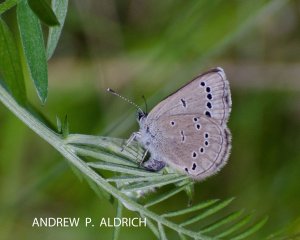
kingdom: Animalia
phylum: Arthropoda
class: Insecta
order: Lepidoptera
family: Lycaenidae
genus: Glaucopsyche
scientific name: Glaucopsyche lygdamus
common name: Silvery Blue
